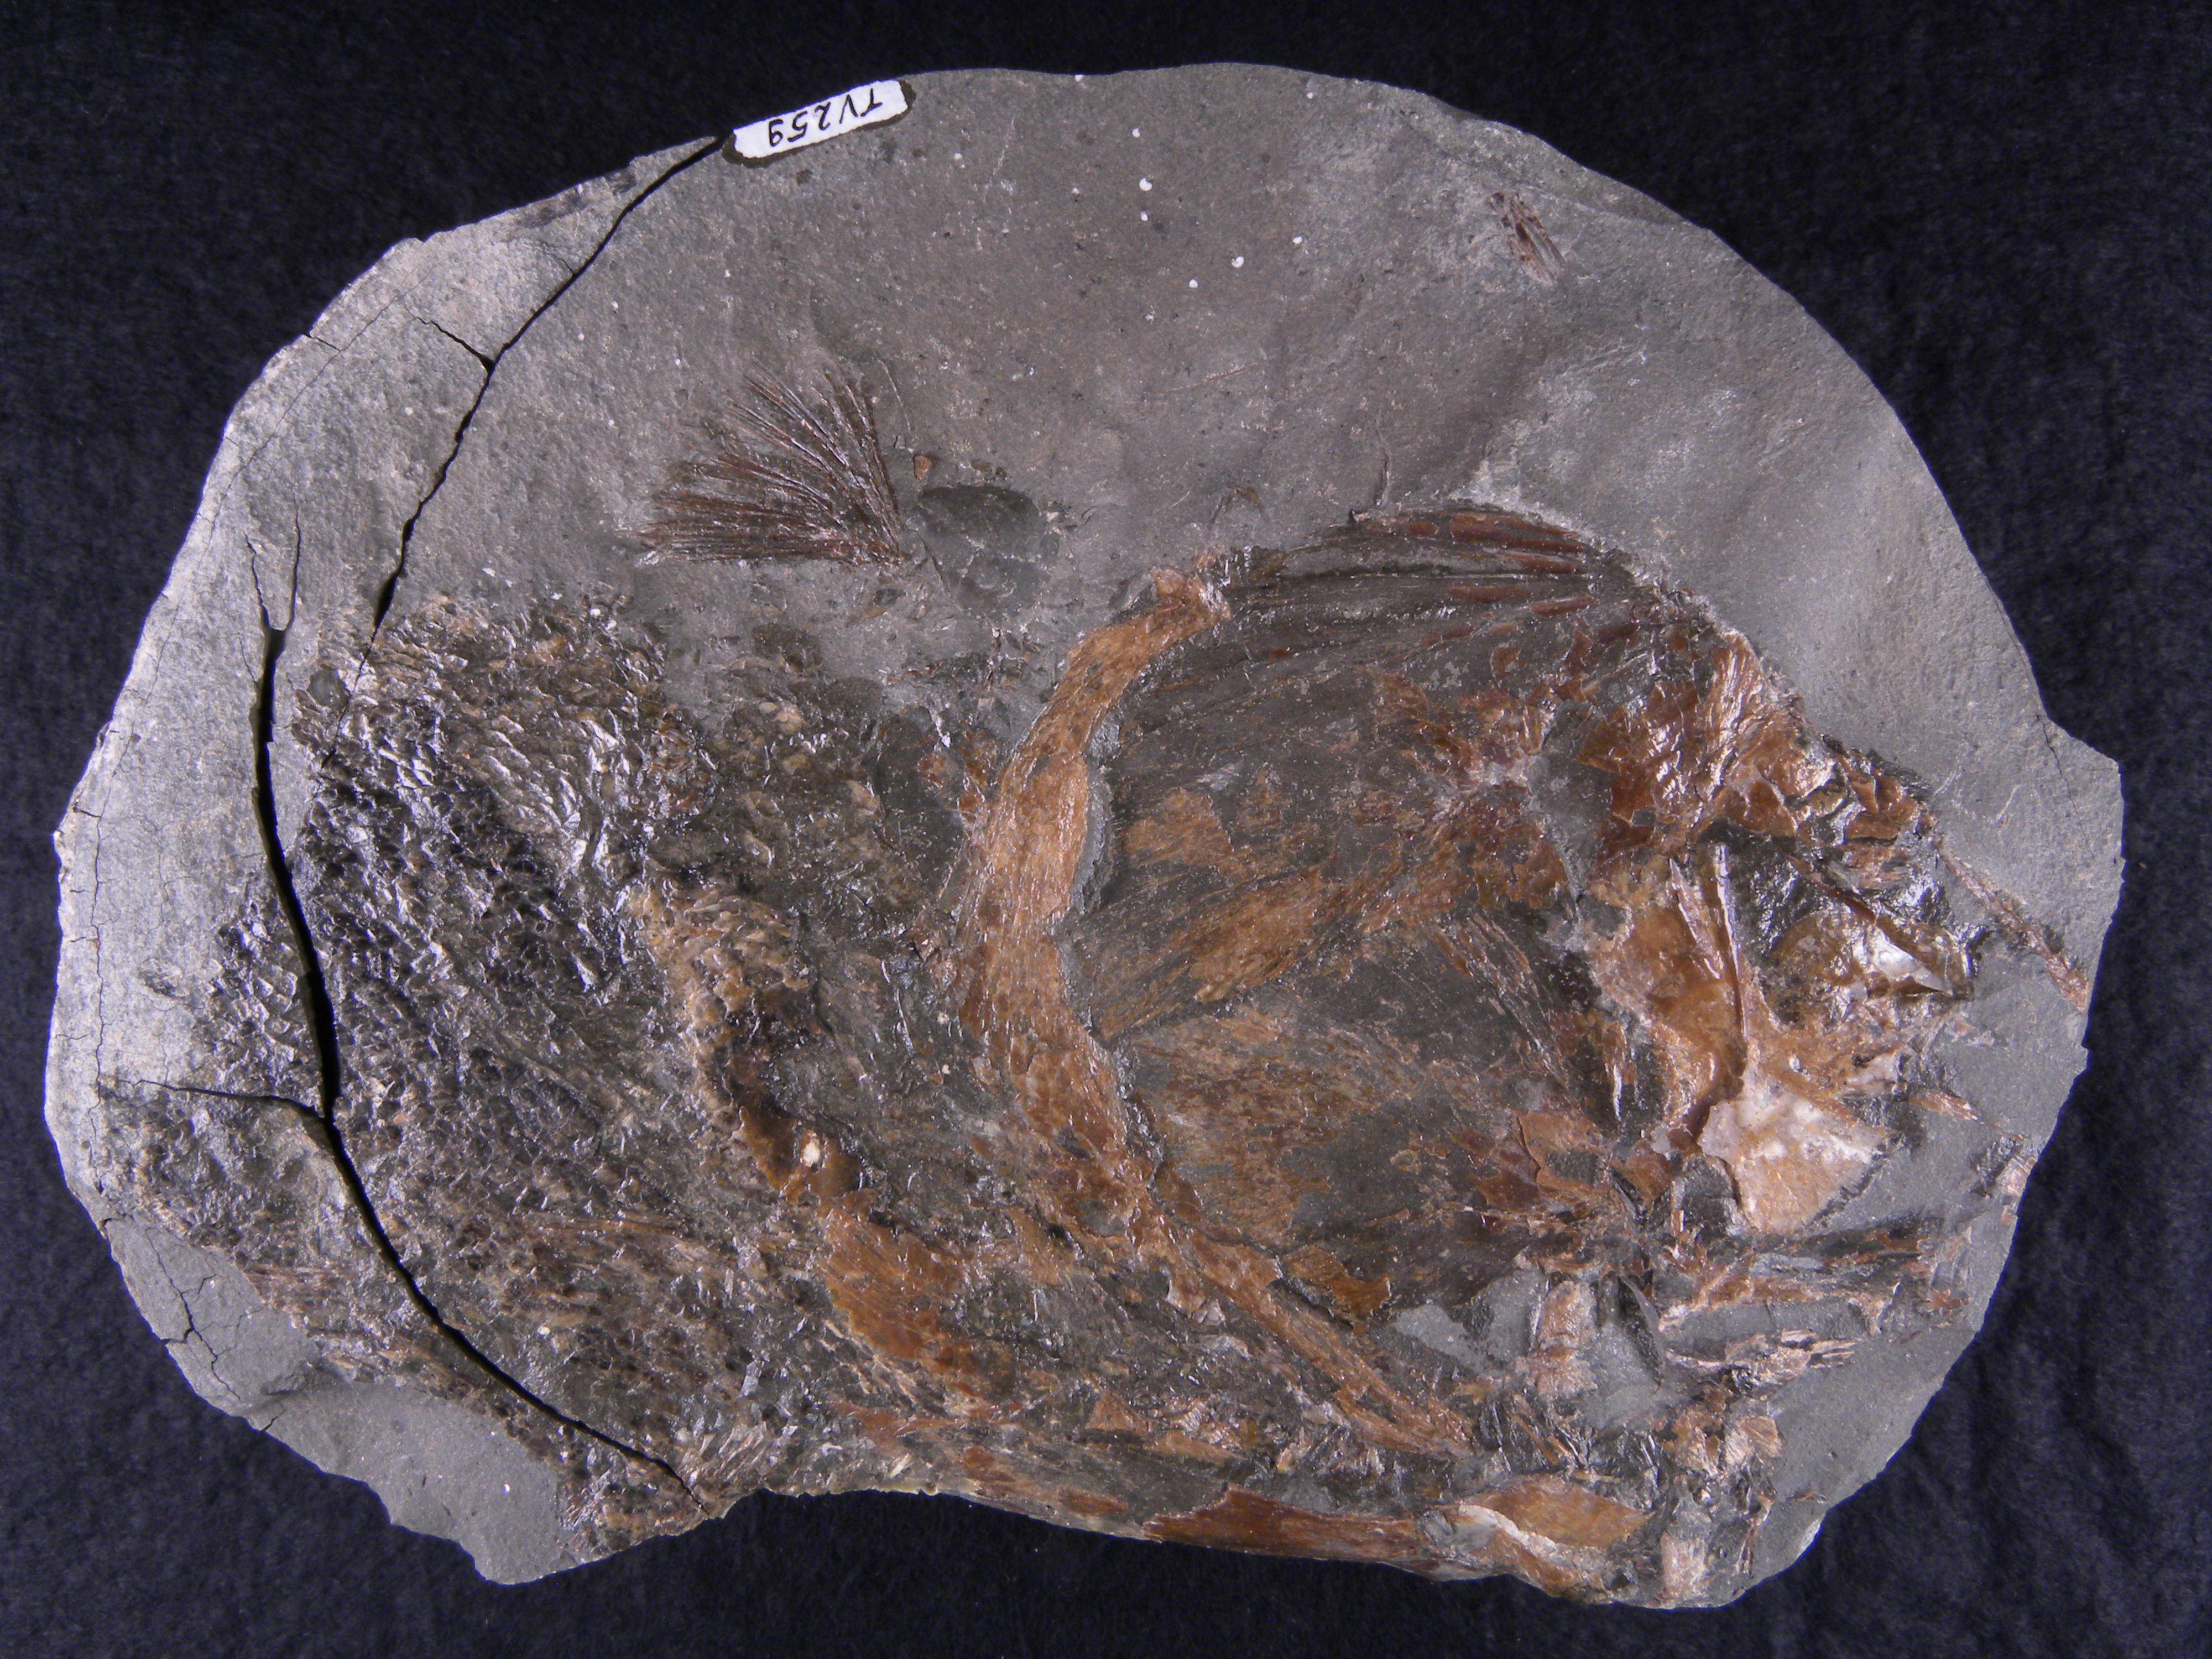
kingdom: Animalia
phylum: Chordata
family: Pachycormidae
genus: Saurostomus
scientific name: Saurostomus
